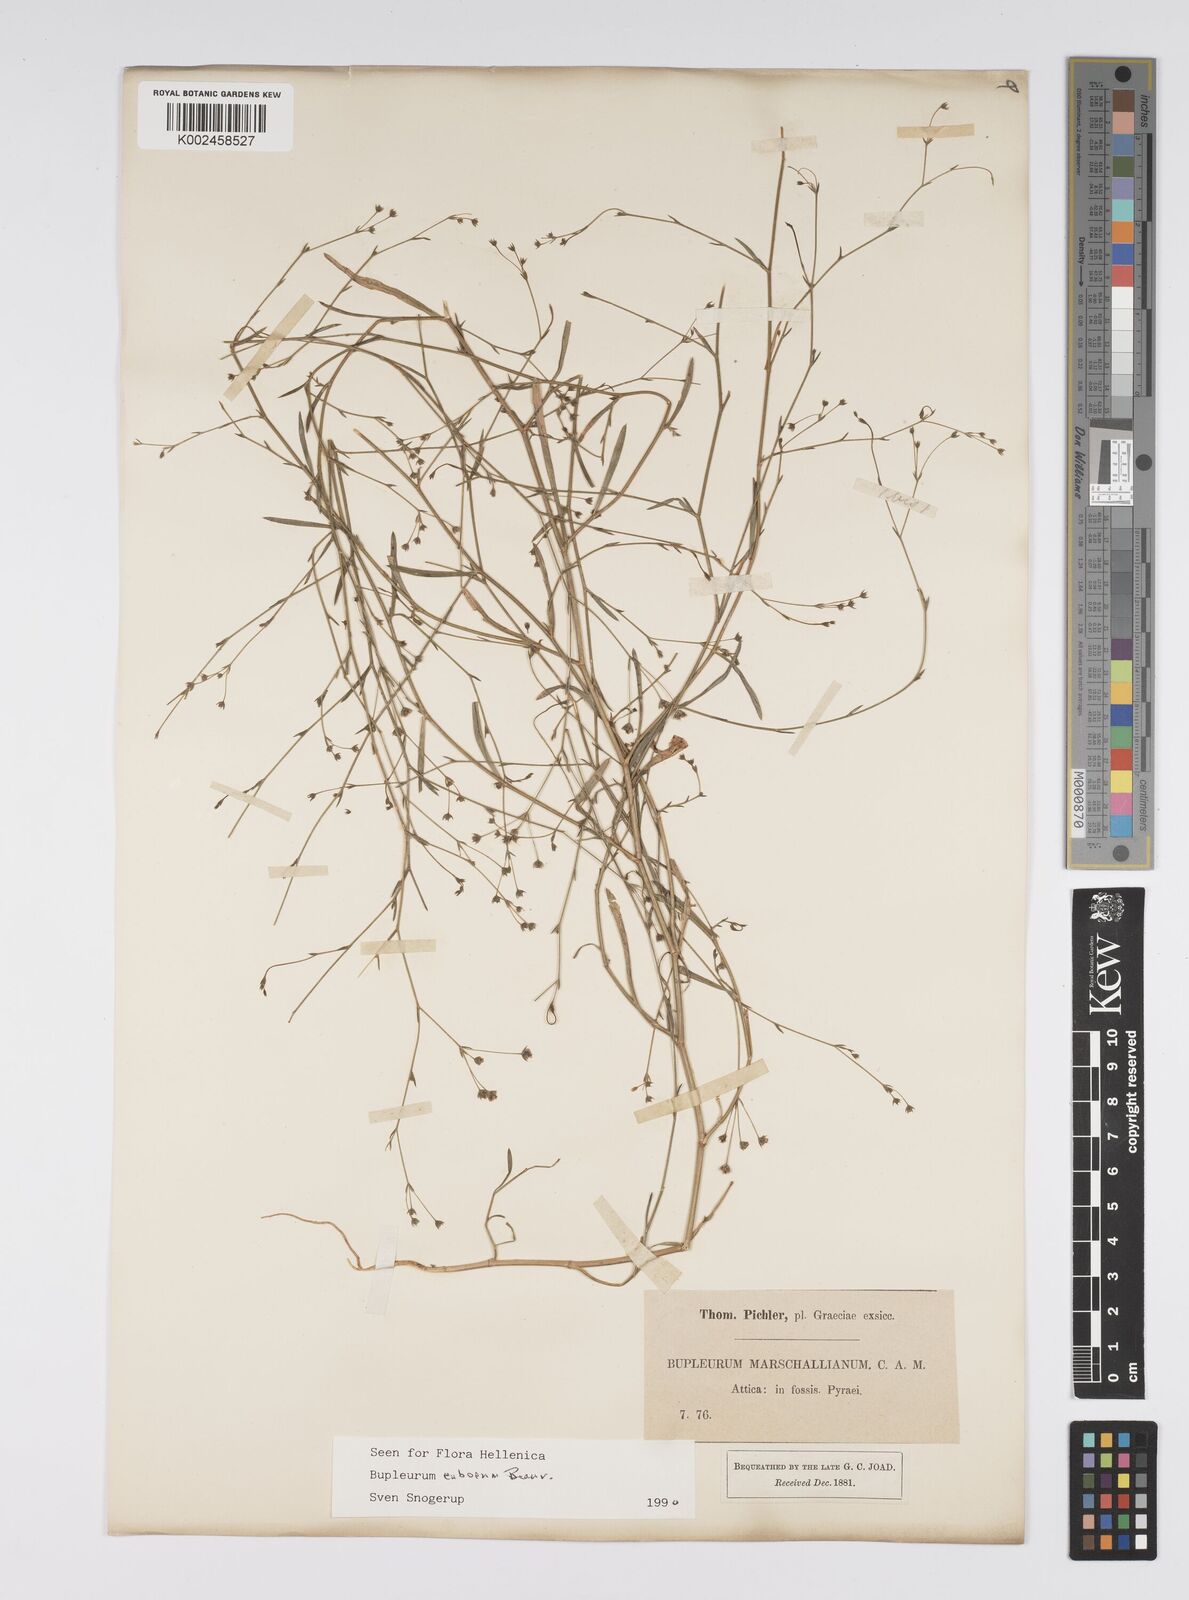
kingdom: Plantae
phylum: Tracheophyta
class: Magnoliopsida
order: Apiales
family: Apiaceae
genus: Bupleurum
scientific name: Bupleurum tenuissimum
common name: Slender hare's-ear
